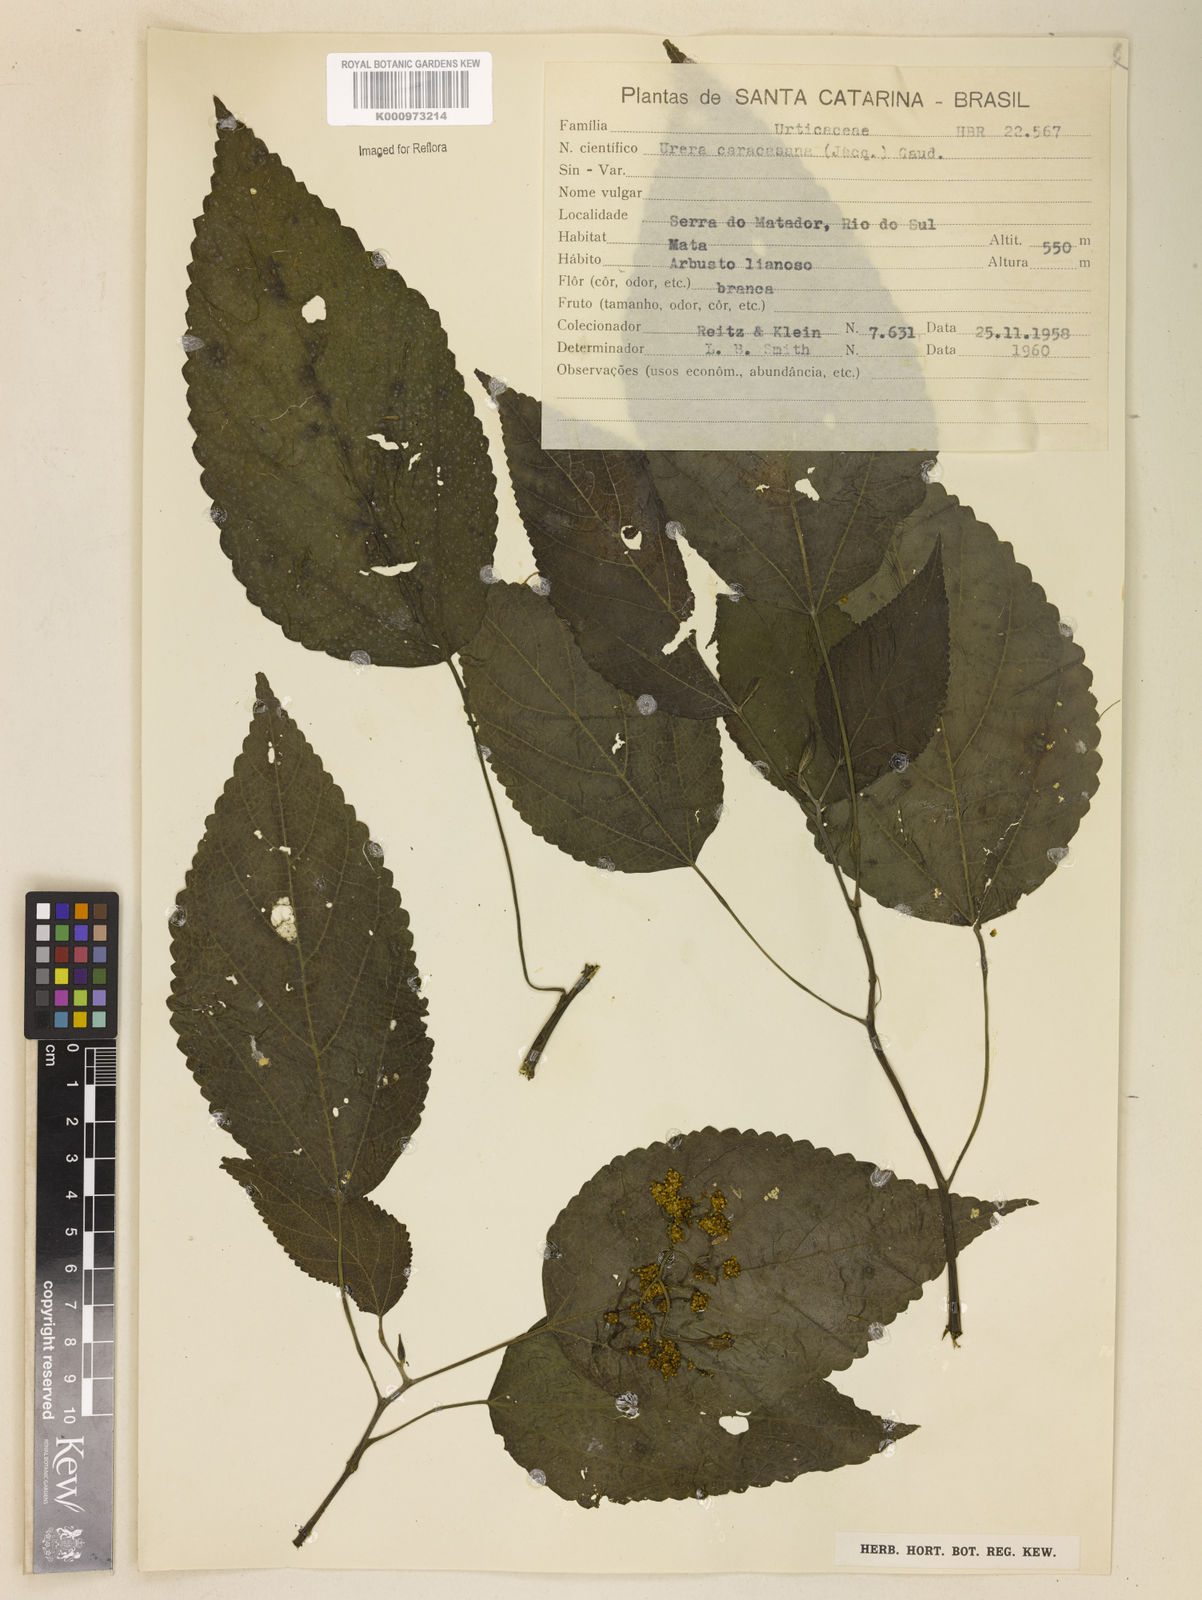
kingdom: Plantae
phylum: Tracheophyta
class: Magnoliopsida
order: Rosales
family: Urticaceae
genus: Urera
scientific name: Urera caracasana
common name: Flameberry
